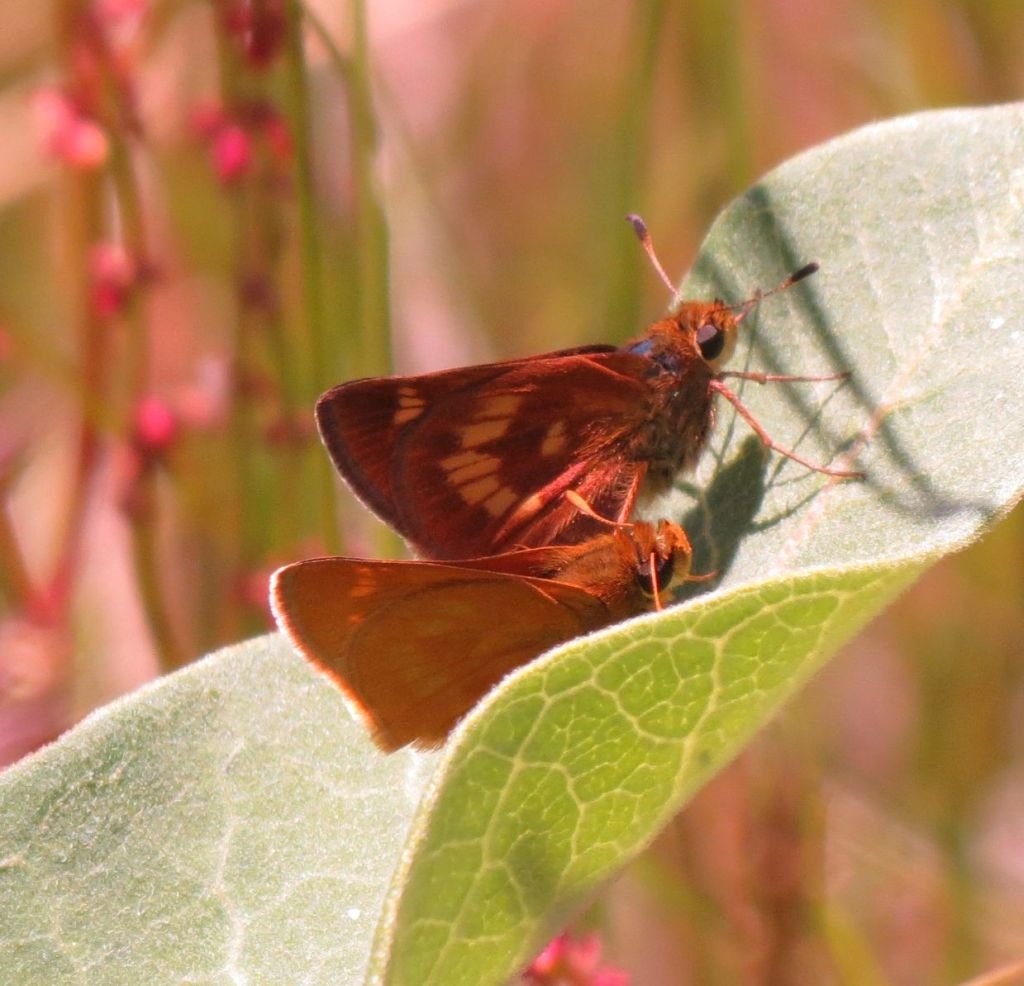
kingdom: Animalia
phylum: Arthropoda
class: Insecta
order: Lepidoptera
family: Hesperiidae
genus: Polites
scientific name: Polites
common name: Long Dash Skipper
